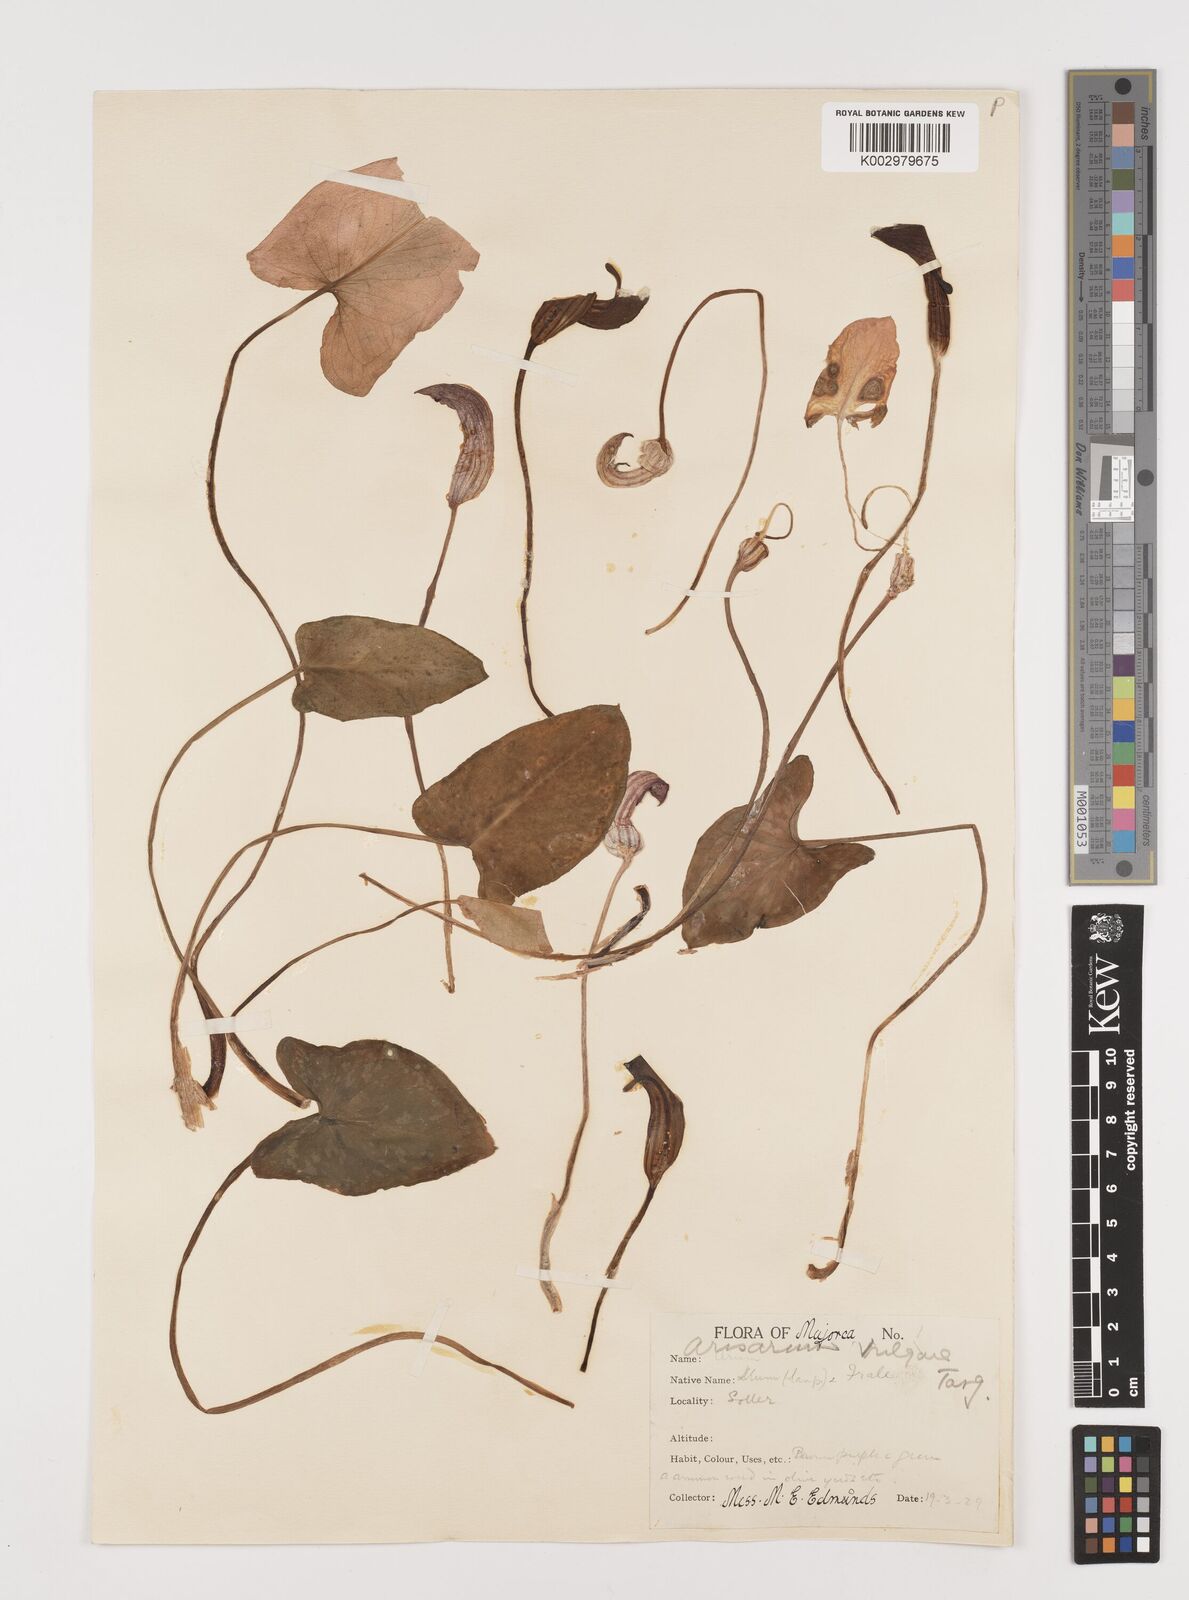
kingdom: Plantae
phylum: Tracheophyta
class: Liliopsida
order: Alismatales
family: Araceae
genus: Arisarum
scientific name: Arisarum vulgare
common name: Common arisarum
